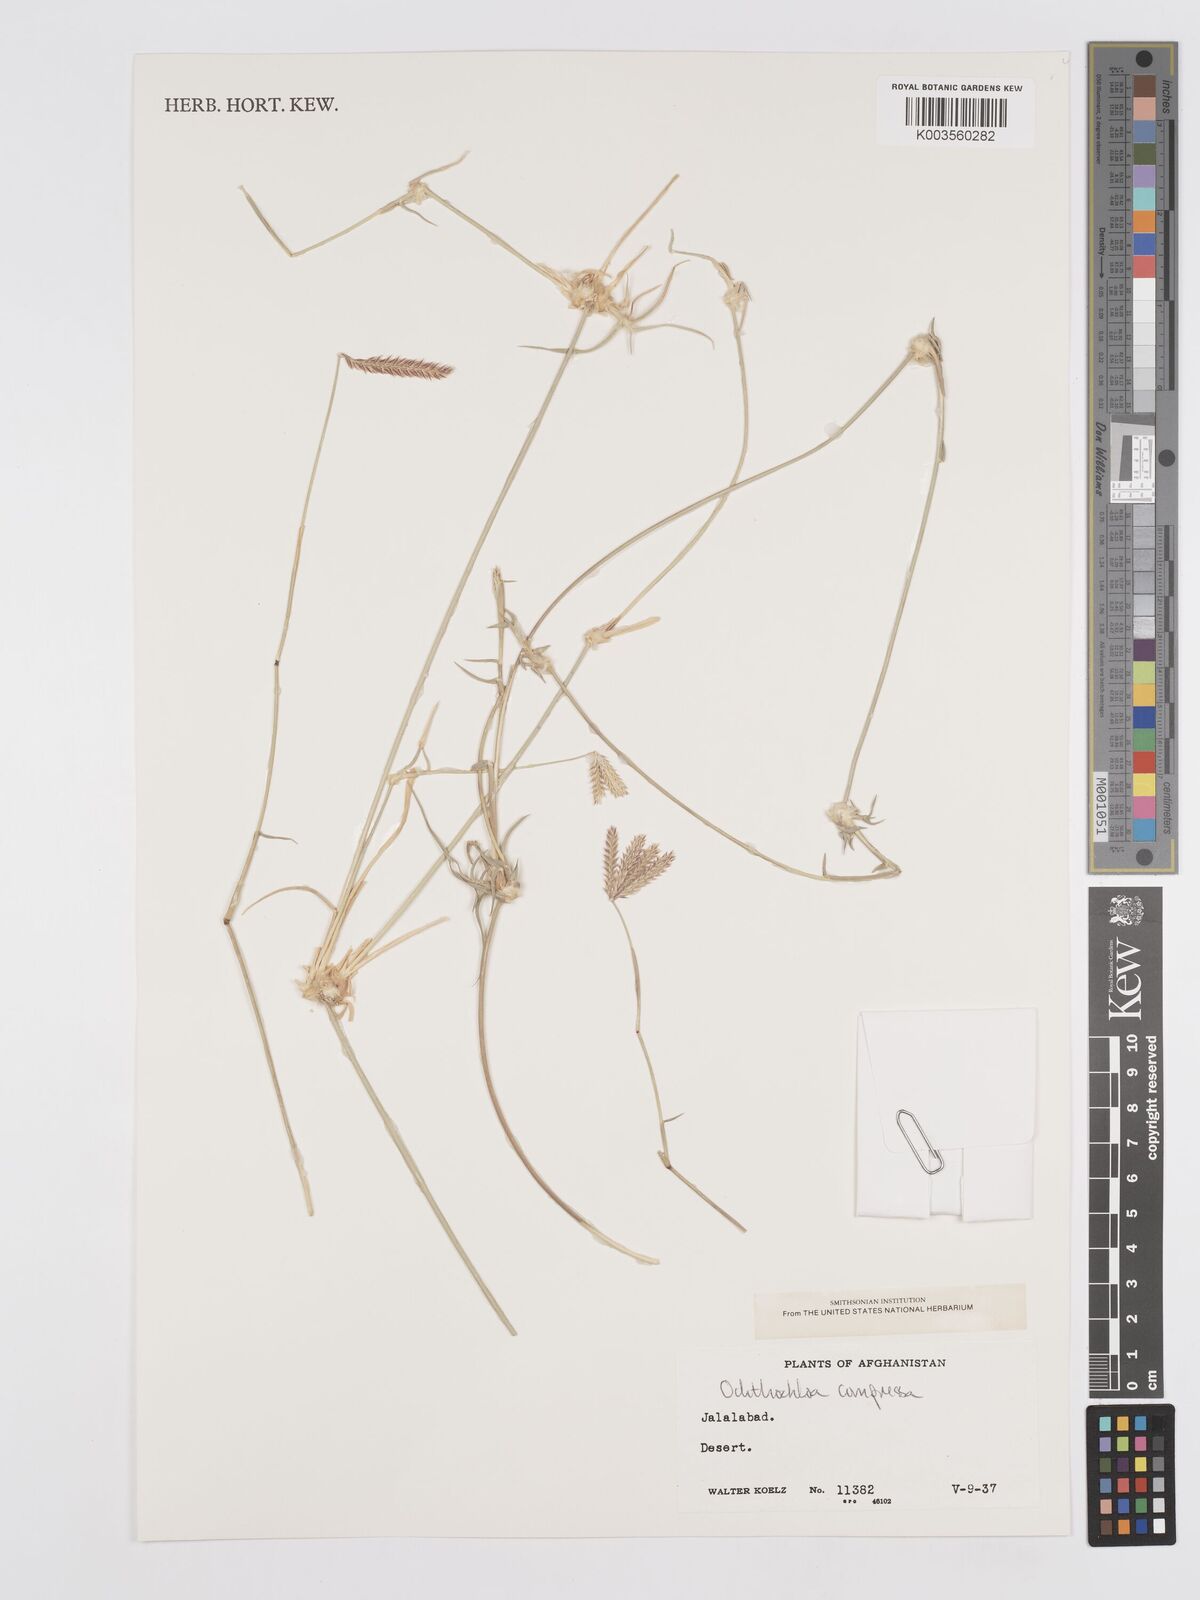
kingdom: Plantae
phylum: Tracheophyta
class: Liliopsida
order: Poales
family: Poaceae
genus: Chloris
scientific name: Chloris flagellifera
